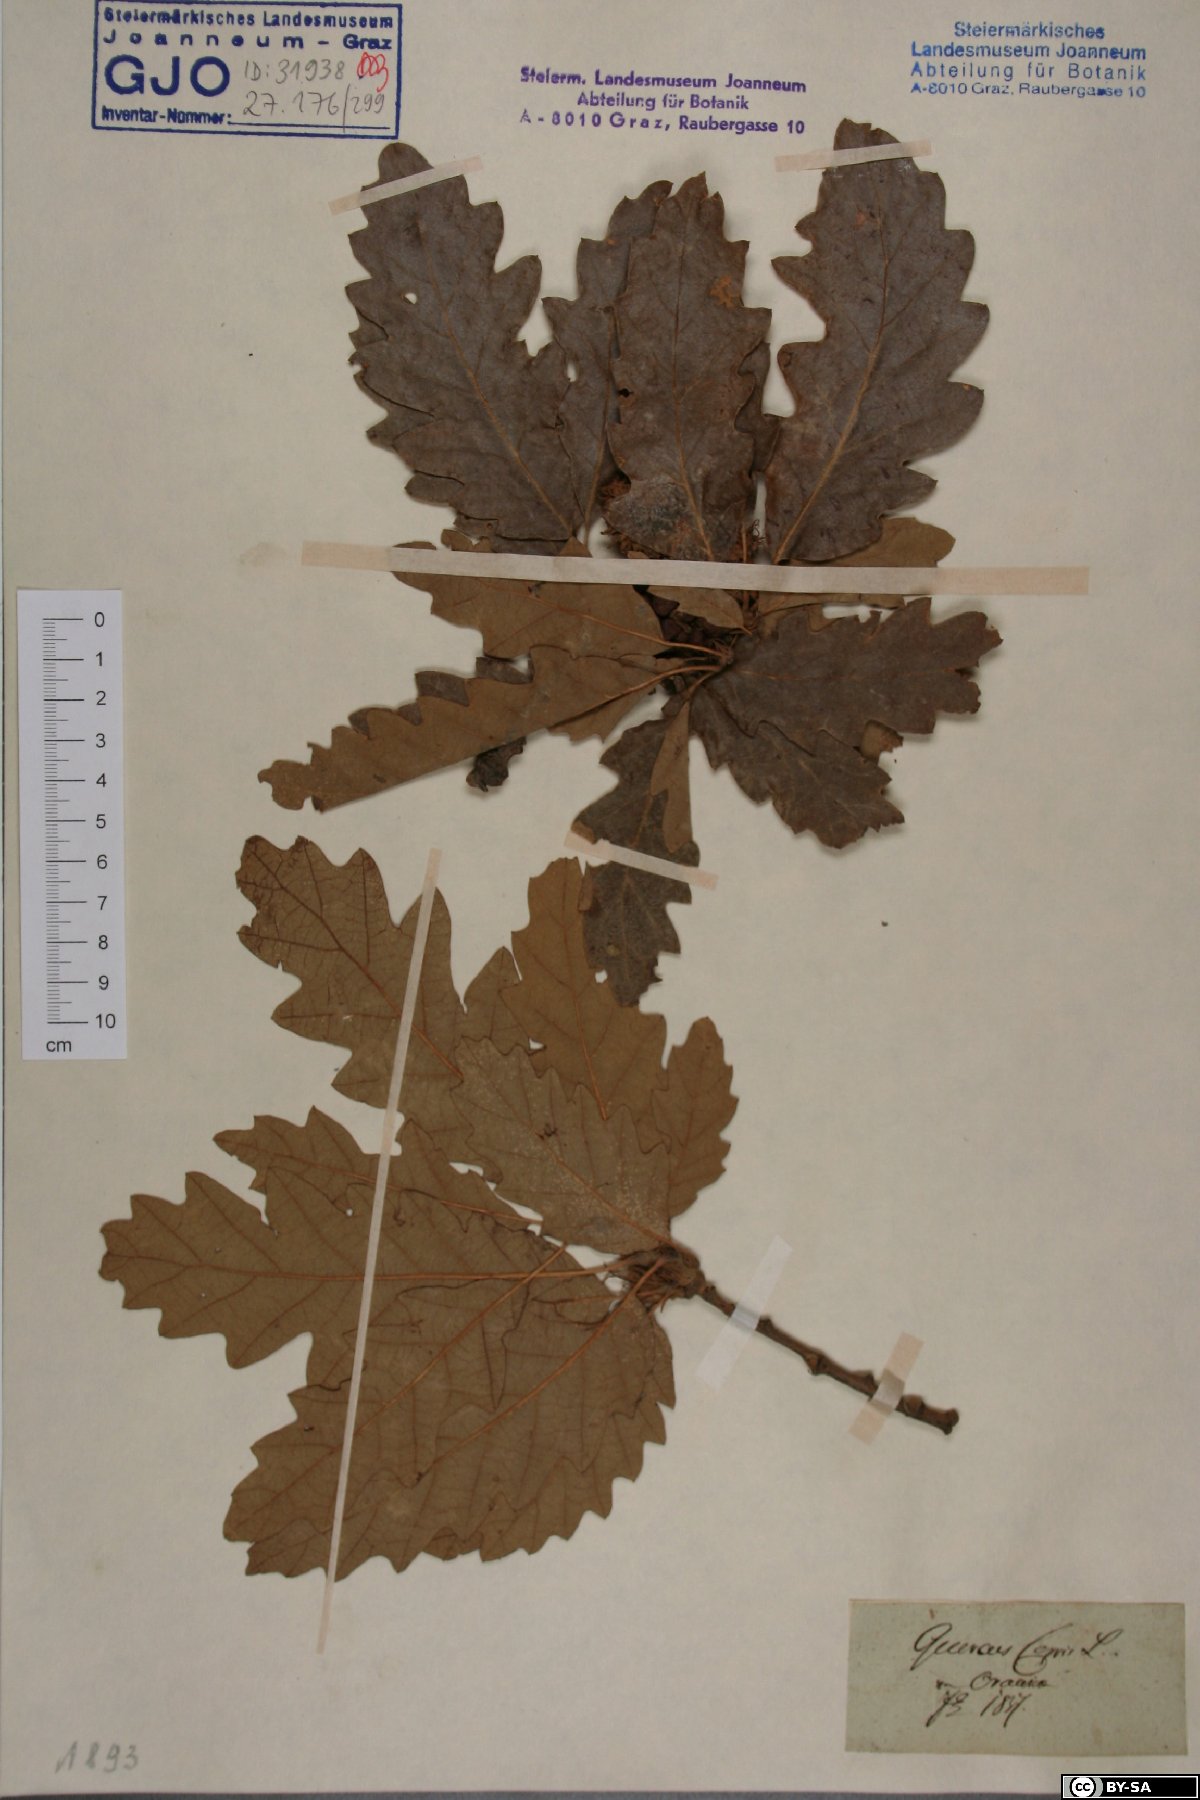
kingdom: Plantae
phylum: Tracheophyta
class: Magnoliopsida
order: Fagales
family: Fagaceae
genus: Quercus
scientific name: Quercus cerris
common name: Turkey oak
